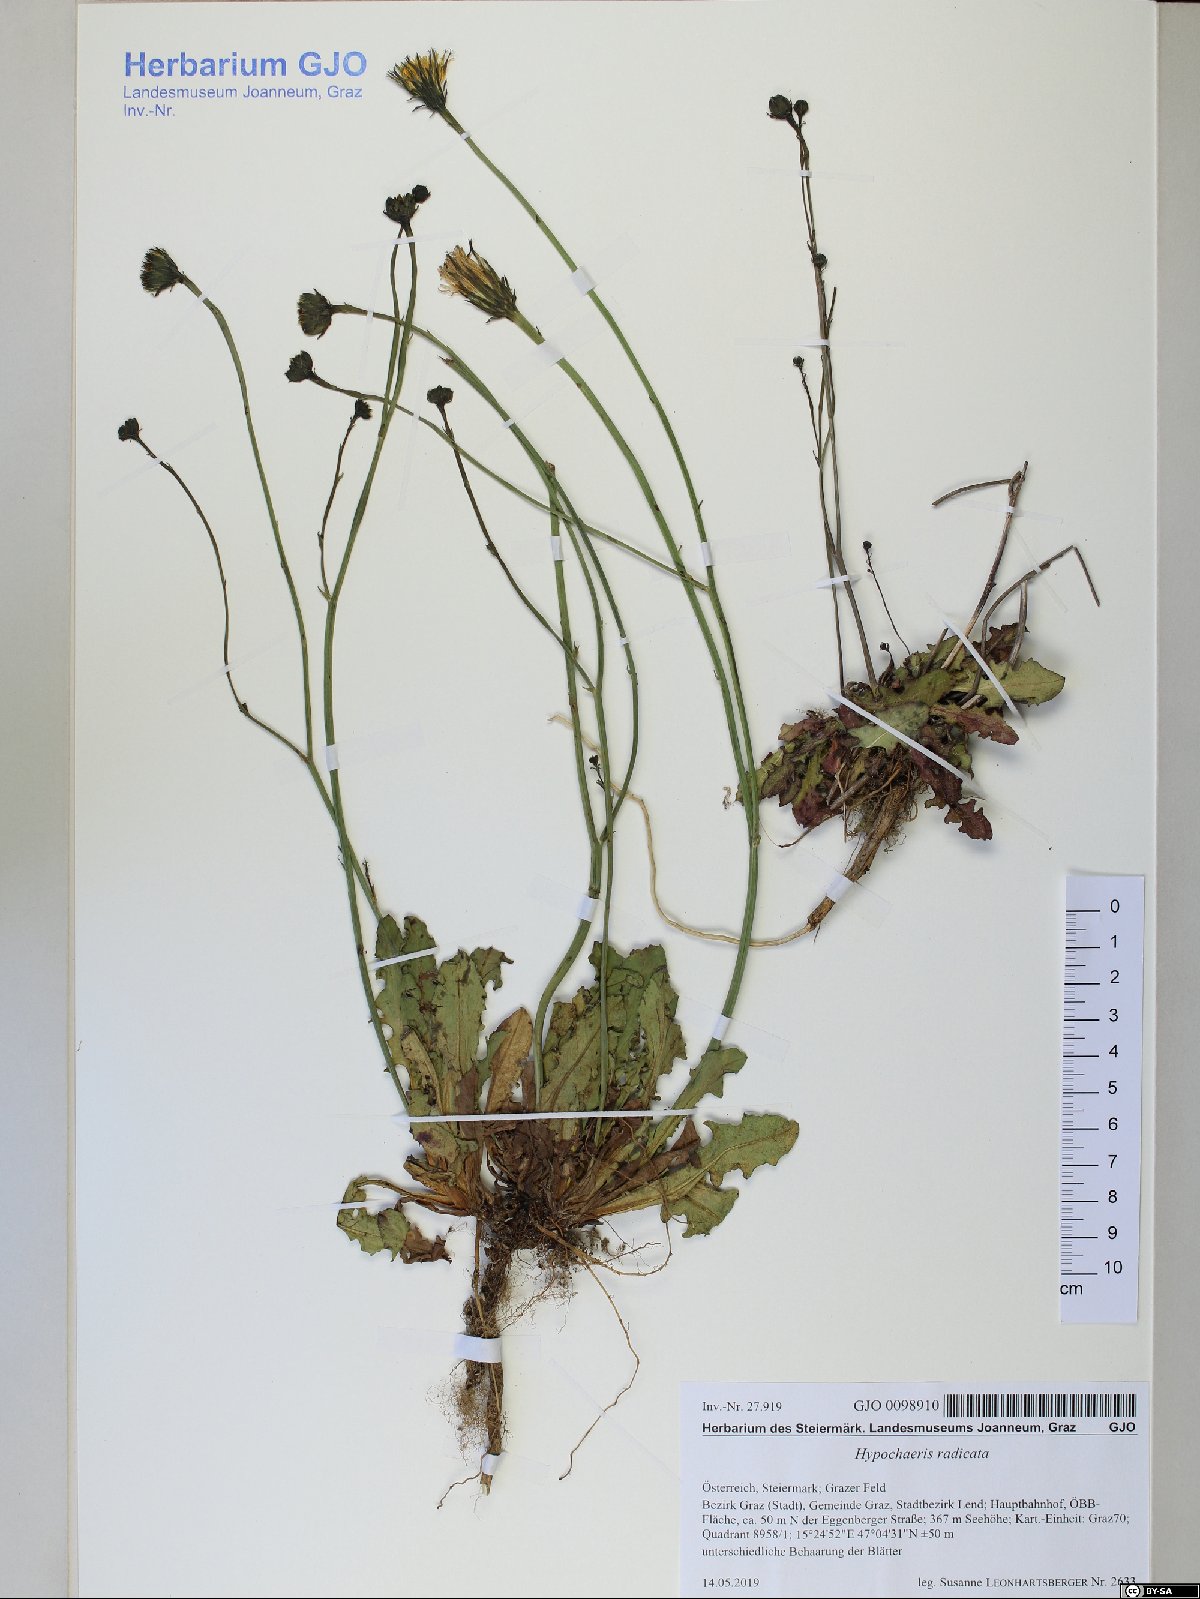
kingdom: Plantae
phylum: Tracheophyta
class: Magnoliopsida
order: Asterales
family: Asteraceae
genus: Hypochaeris
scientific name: Hypochaeris radicata
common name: Flatweed
